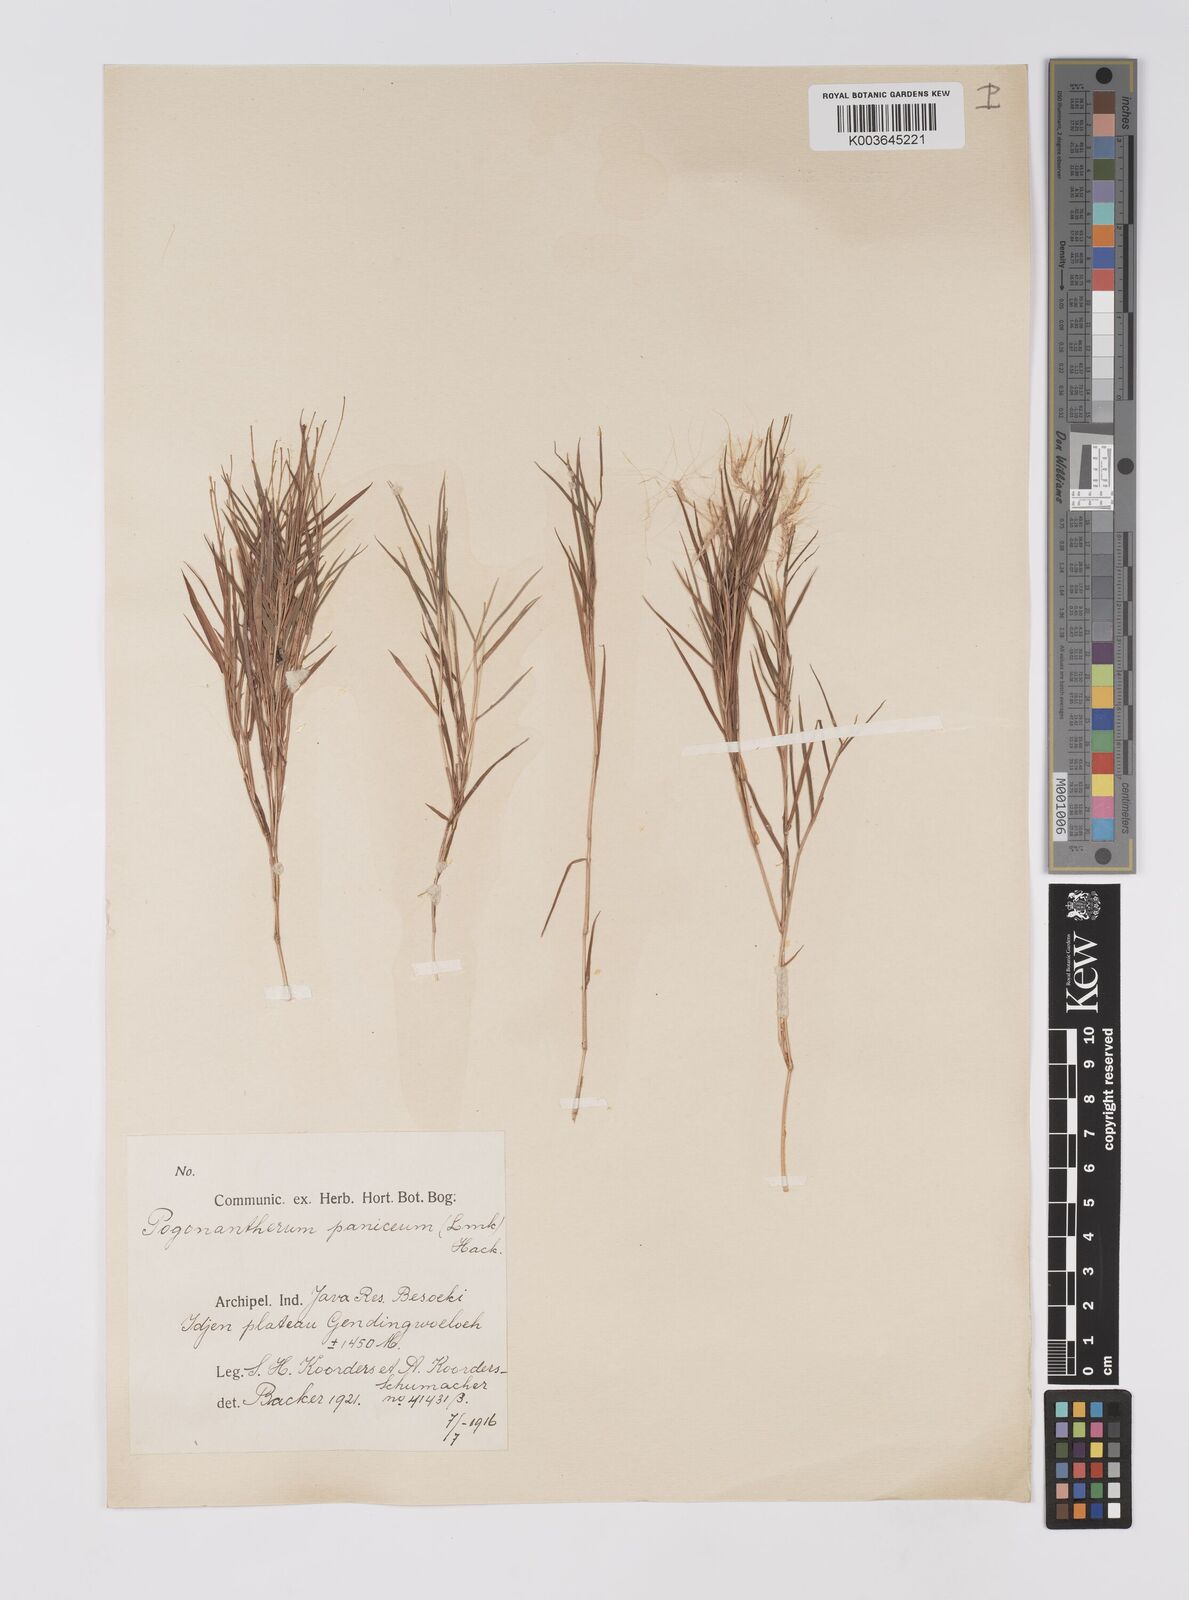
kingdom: Plantae
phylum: Tracheophyta
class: Liliopsida
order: Poales
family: Poaceae
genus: Pogonatherum
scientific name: Pogonatherum paniceum
